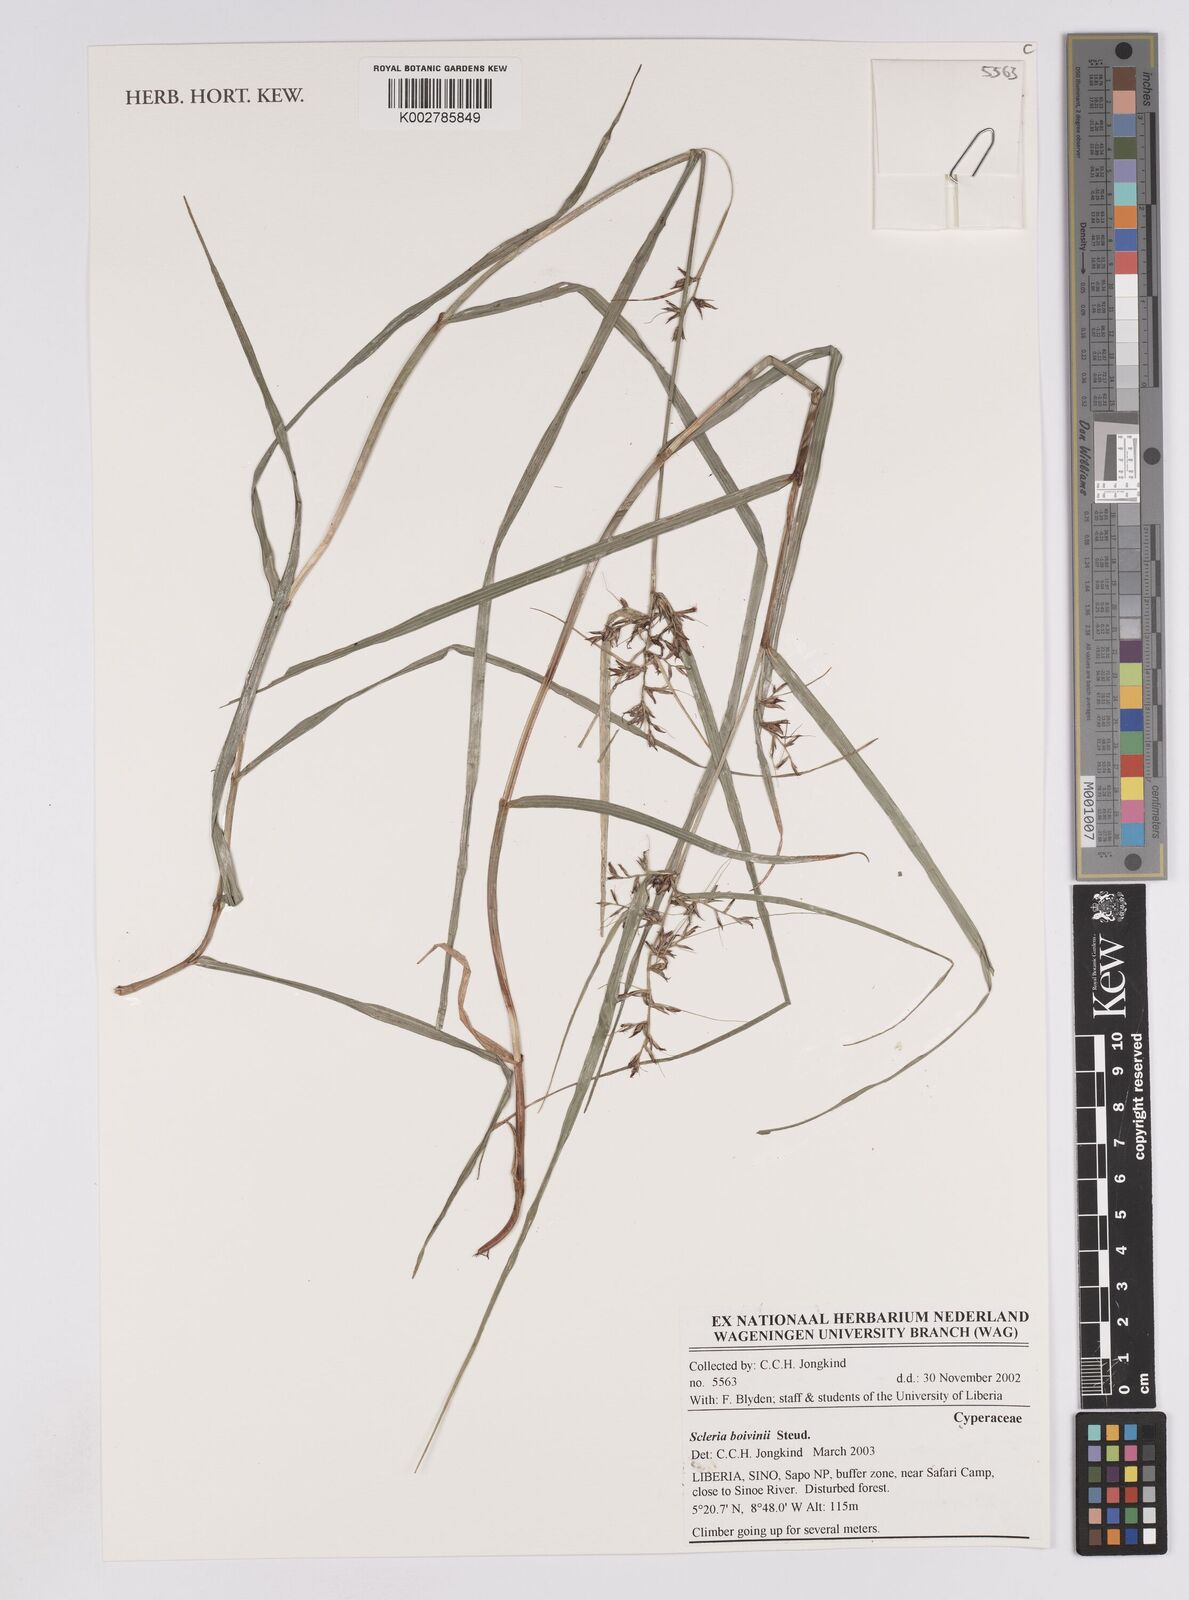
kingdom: Plantae
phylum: Tracheophyta
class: Liliopsida
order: Poales
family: Cyperaceae
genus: Scleria
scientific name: Scleria boivinii
